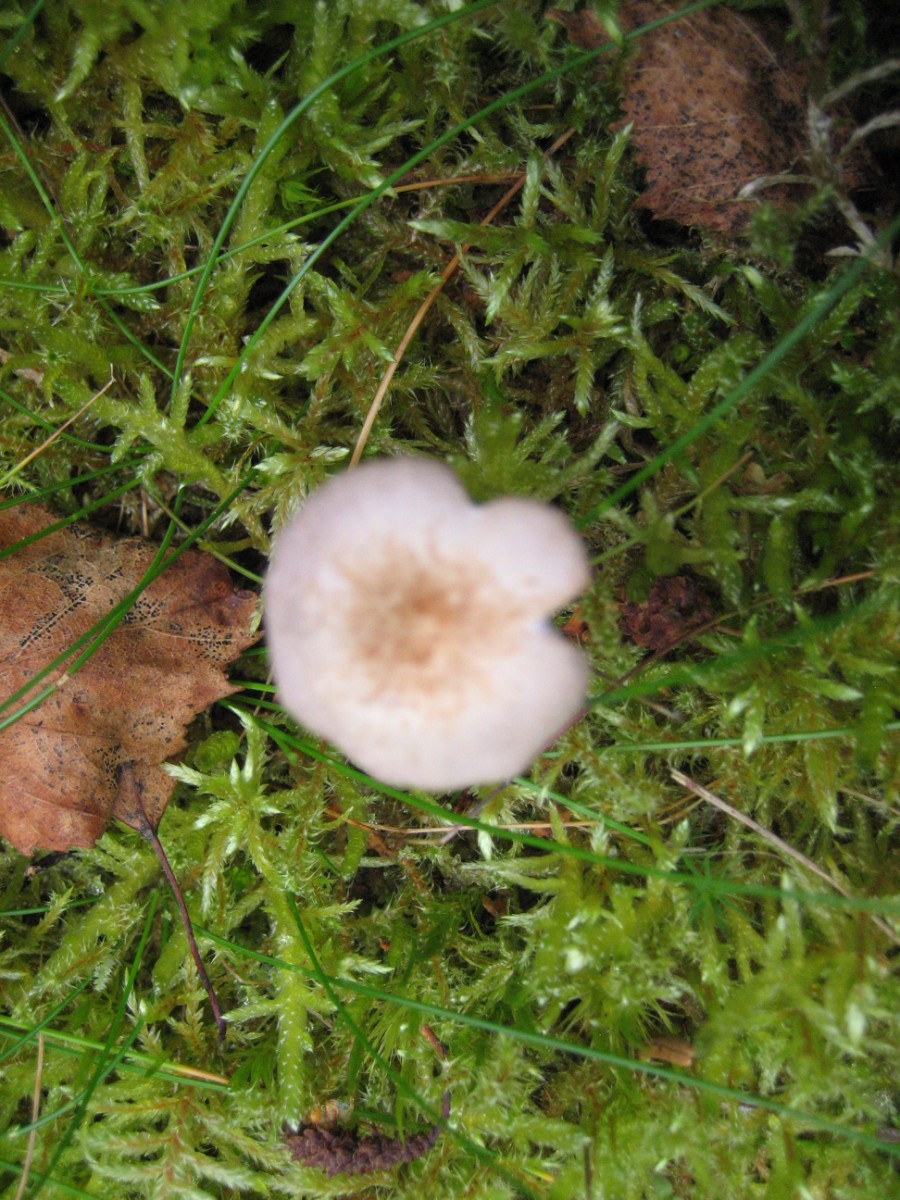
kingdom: Fungi
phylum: Basidiomycota
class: Agaricomycetes
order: Agaricales
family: Hydnangiaceae
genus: Laccaria
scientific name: Laccaria amethystina
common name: violet ametysthat
